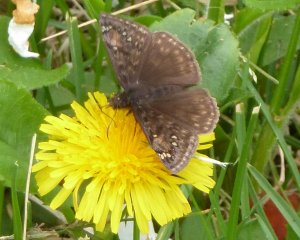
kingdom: Animalia
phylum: Arthropoda
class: Insecta
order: Lepidoptera
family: Hesperiidae
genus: Gesta
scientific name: Gesta
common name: Juvenal's Duskywing
